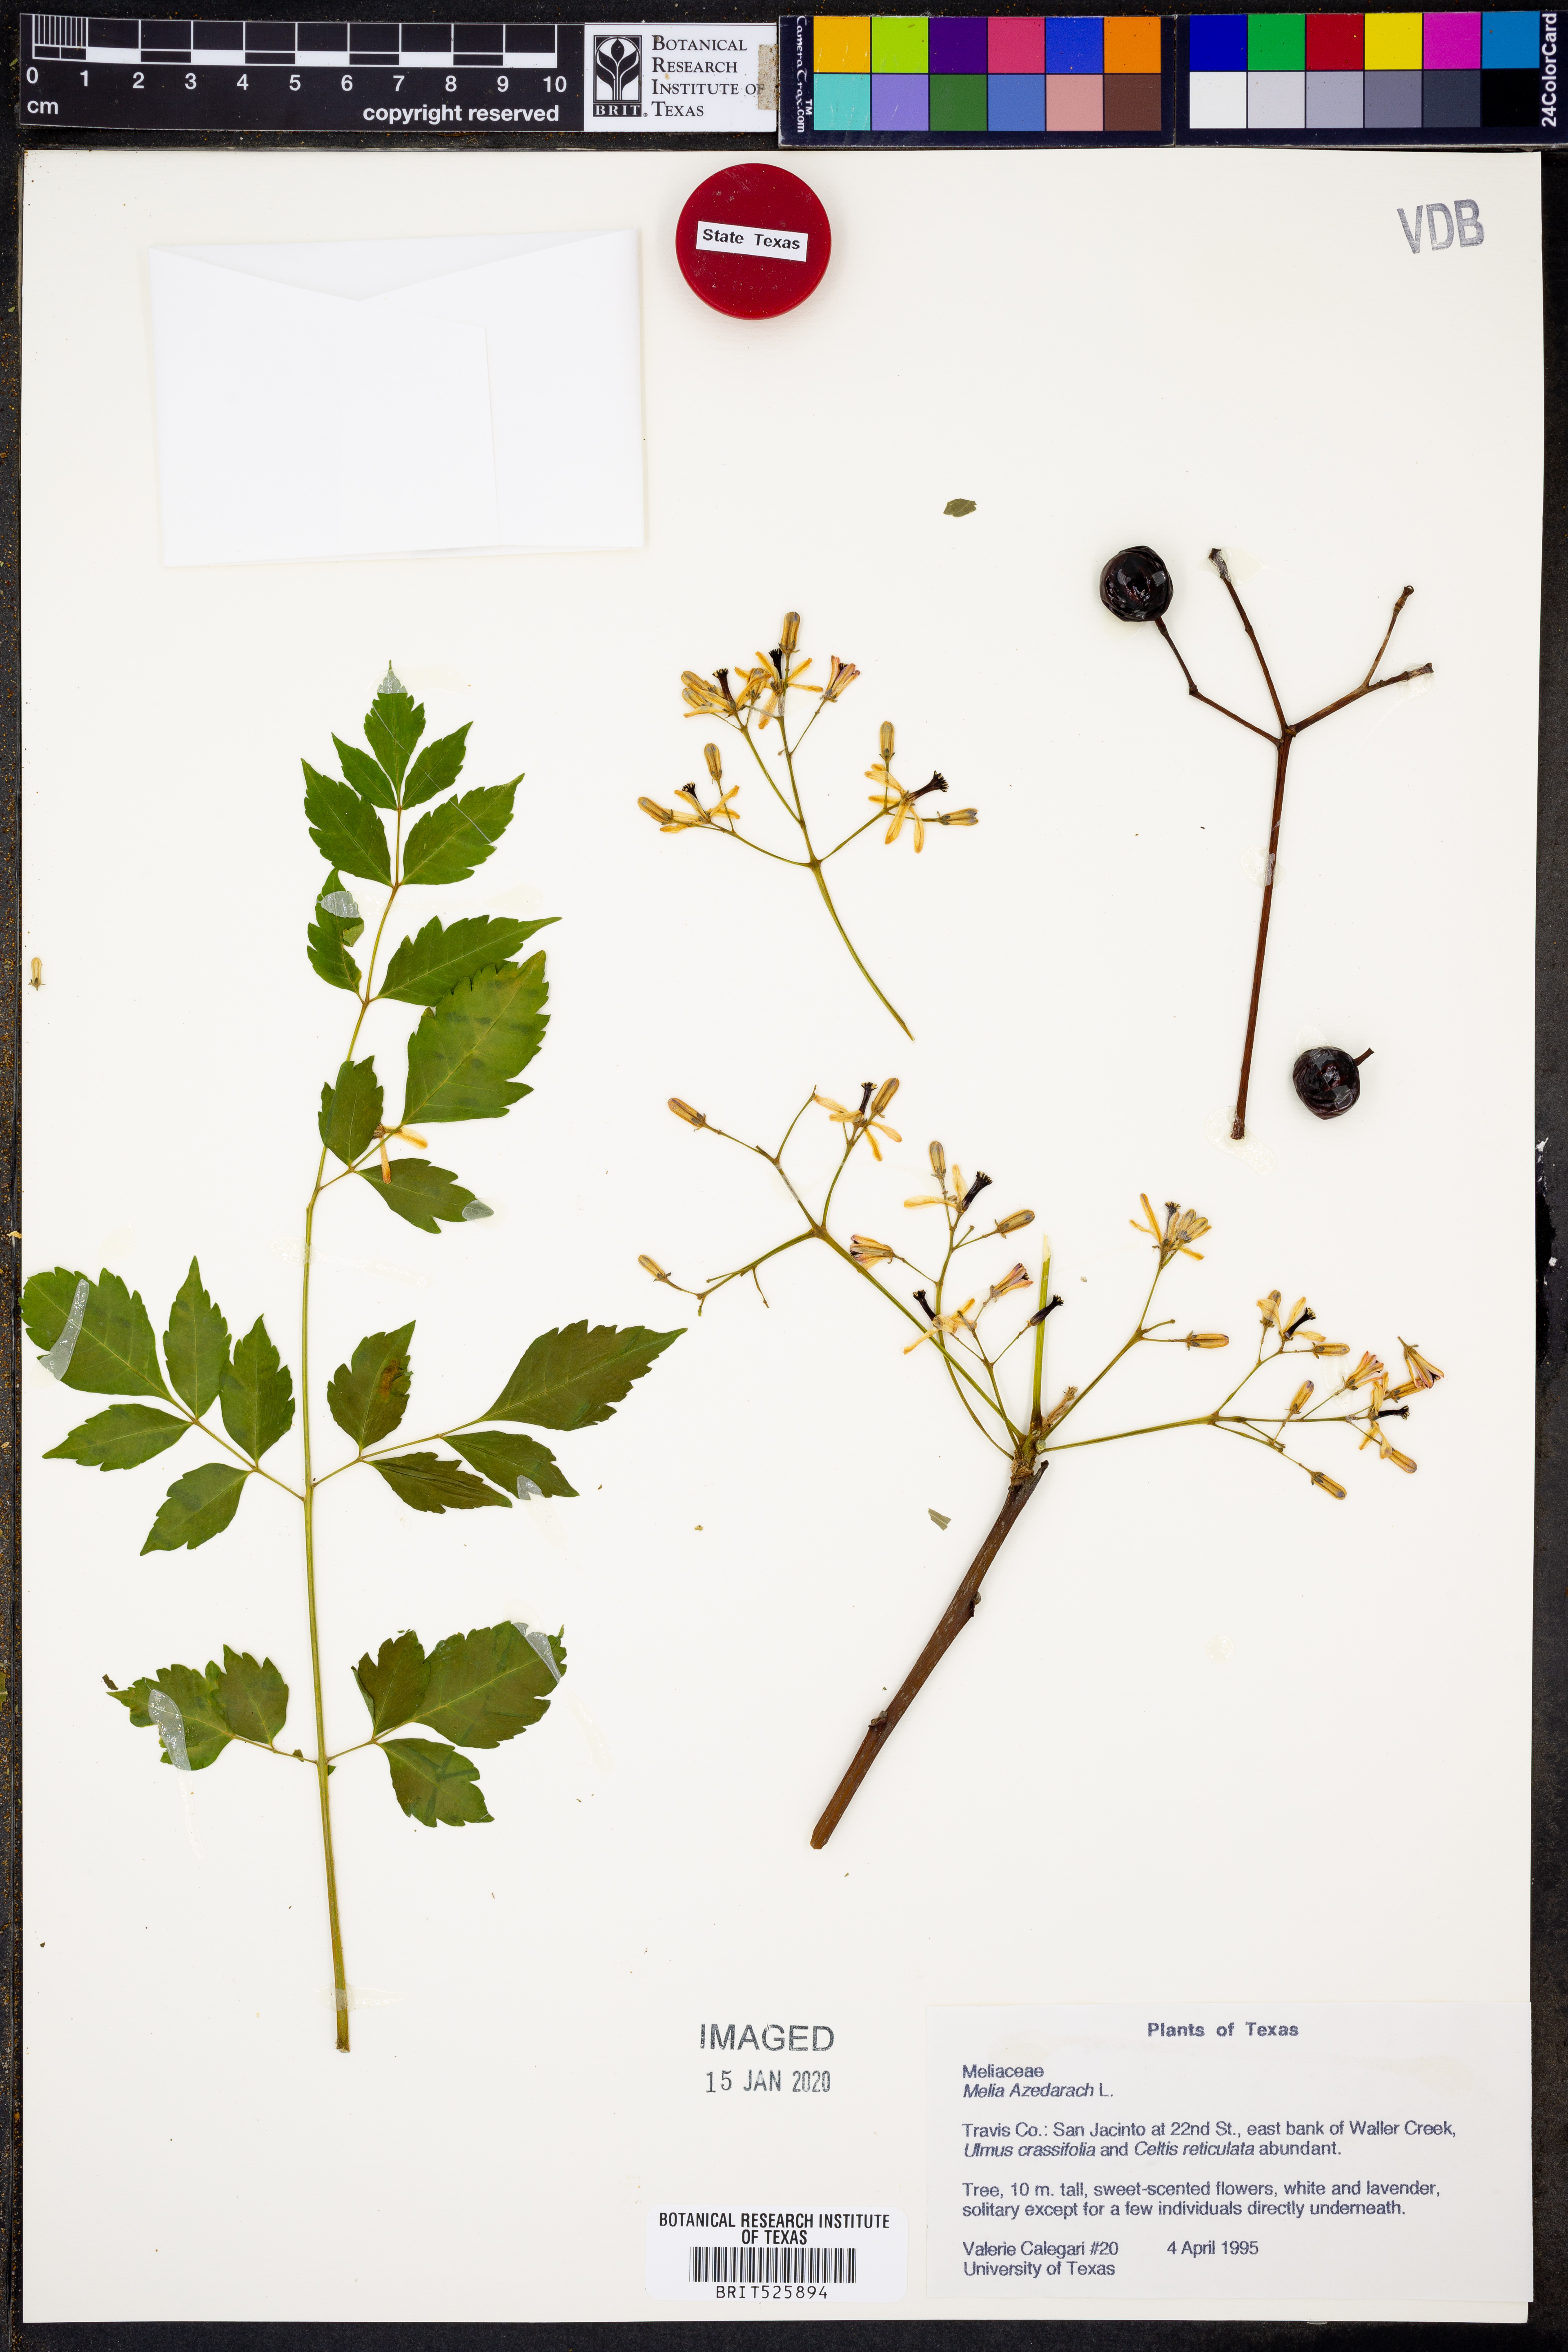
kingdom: Plantae
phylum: Tracheophyta
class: Magnoliopsida
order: Sapindales
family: Meliaceae
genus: Melia
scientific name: Melia azedarach
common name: Chinaberrytree
